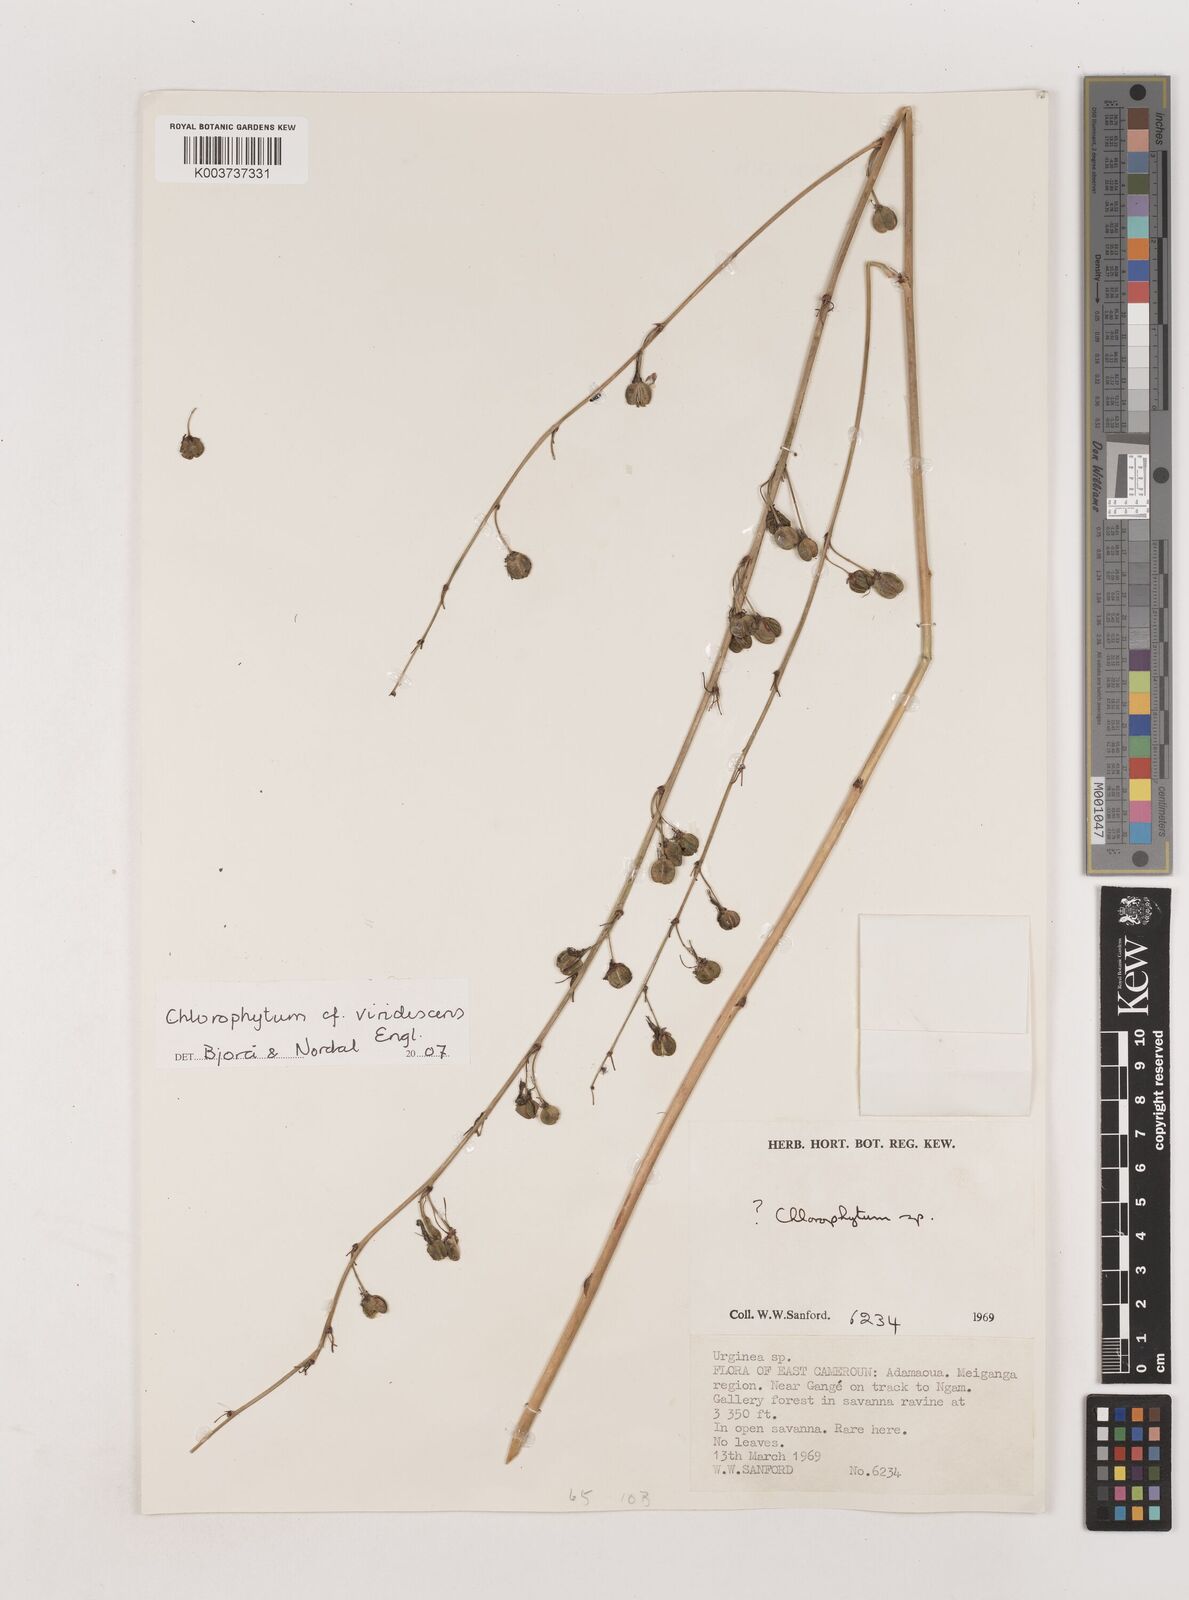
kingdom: Plantae
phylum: Tracheophyta
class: Liliopsida
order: Asparagales
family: Asparagaceae
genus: Chlorophytum
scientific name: Chlorophytum viridescens
